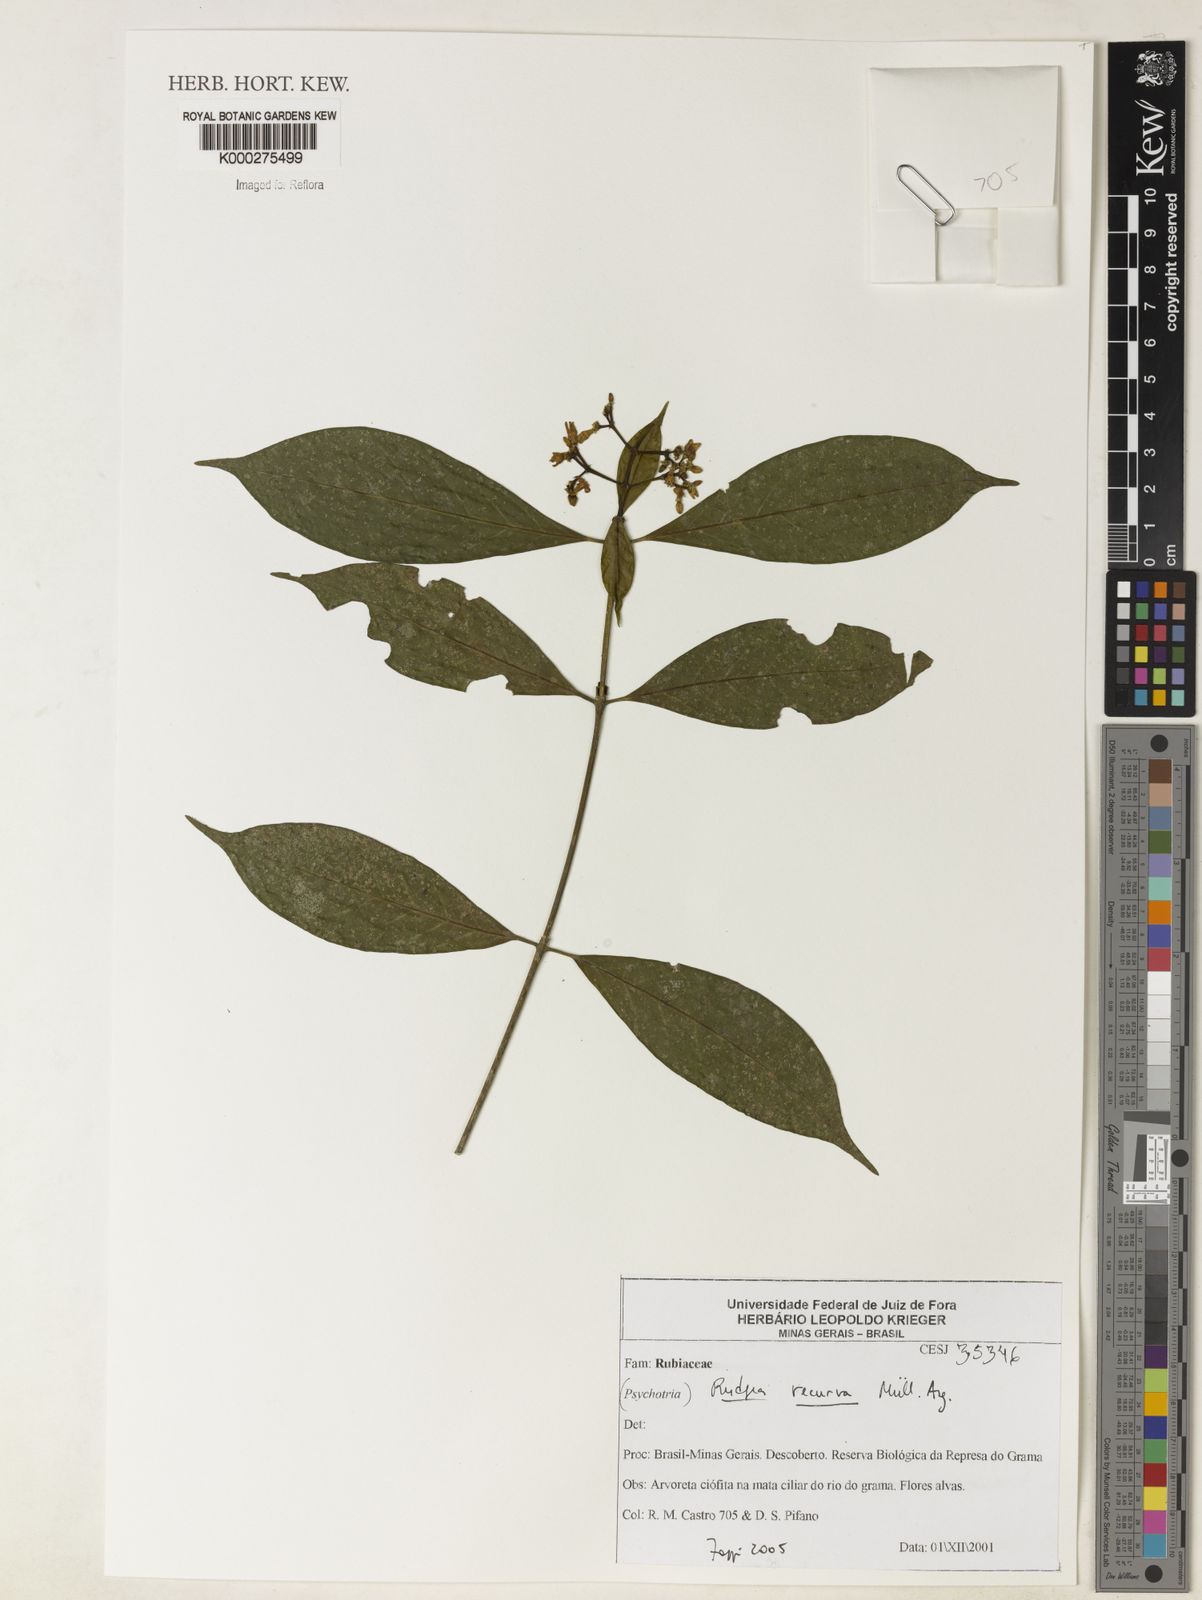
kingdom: Plantae
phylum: Tracheophyta
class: Magnoliopsida
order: Gentianales
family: Rubiaceae
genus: Rudgea
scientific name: Rudgea recurva
